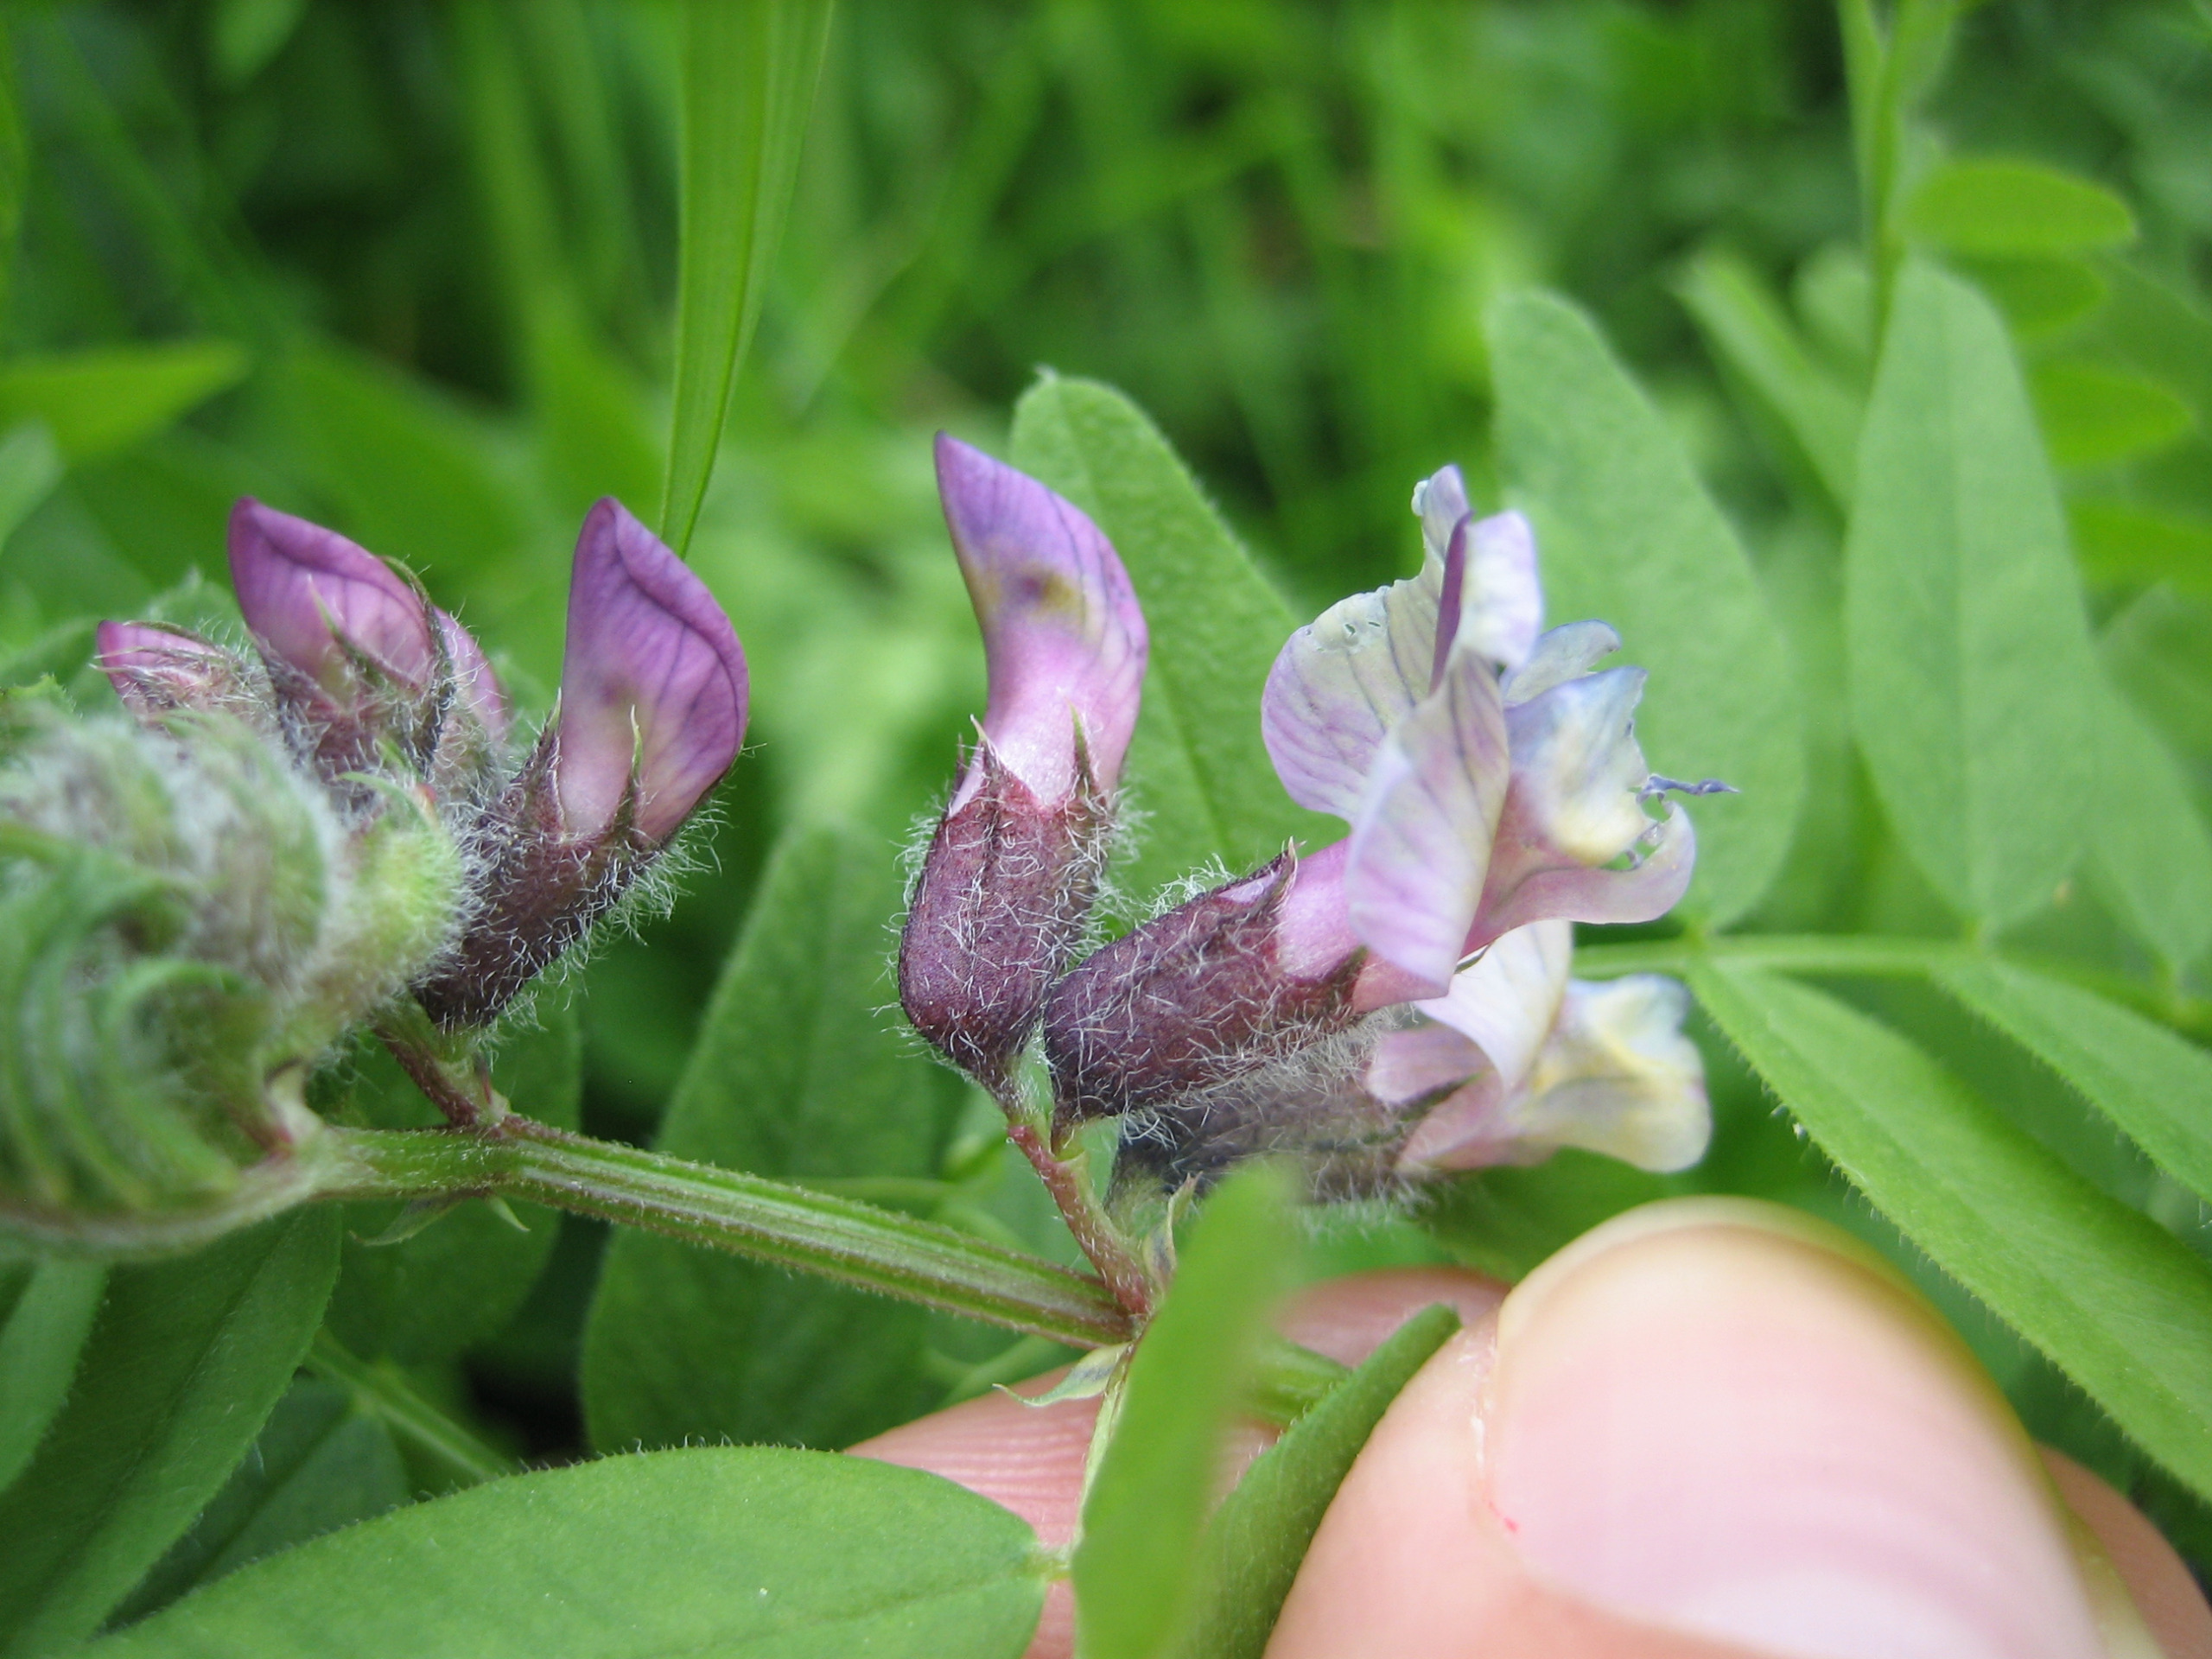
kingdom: Plantae
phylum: Tracheophyta
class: Magnoliopsida
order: Fabales
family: Fabaceae
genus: Vicia
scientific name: Vicia sepium
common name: Gærde-vikke
